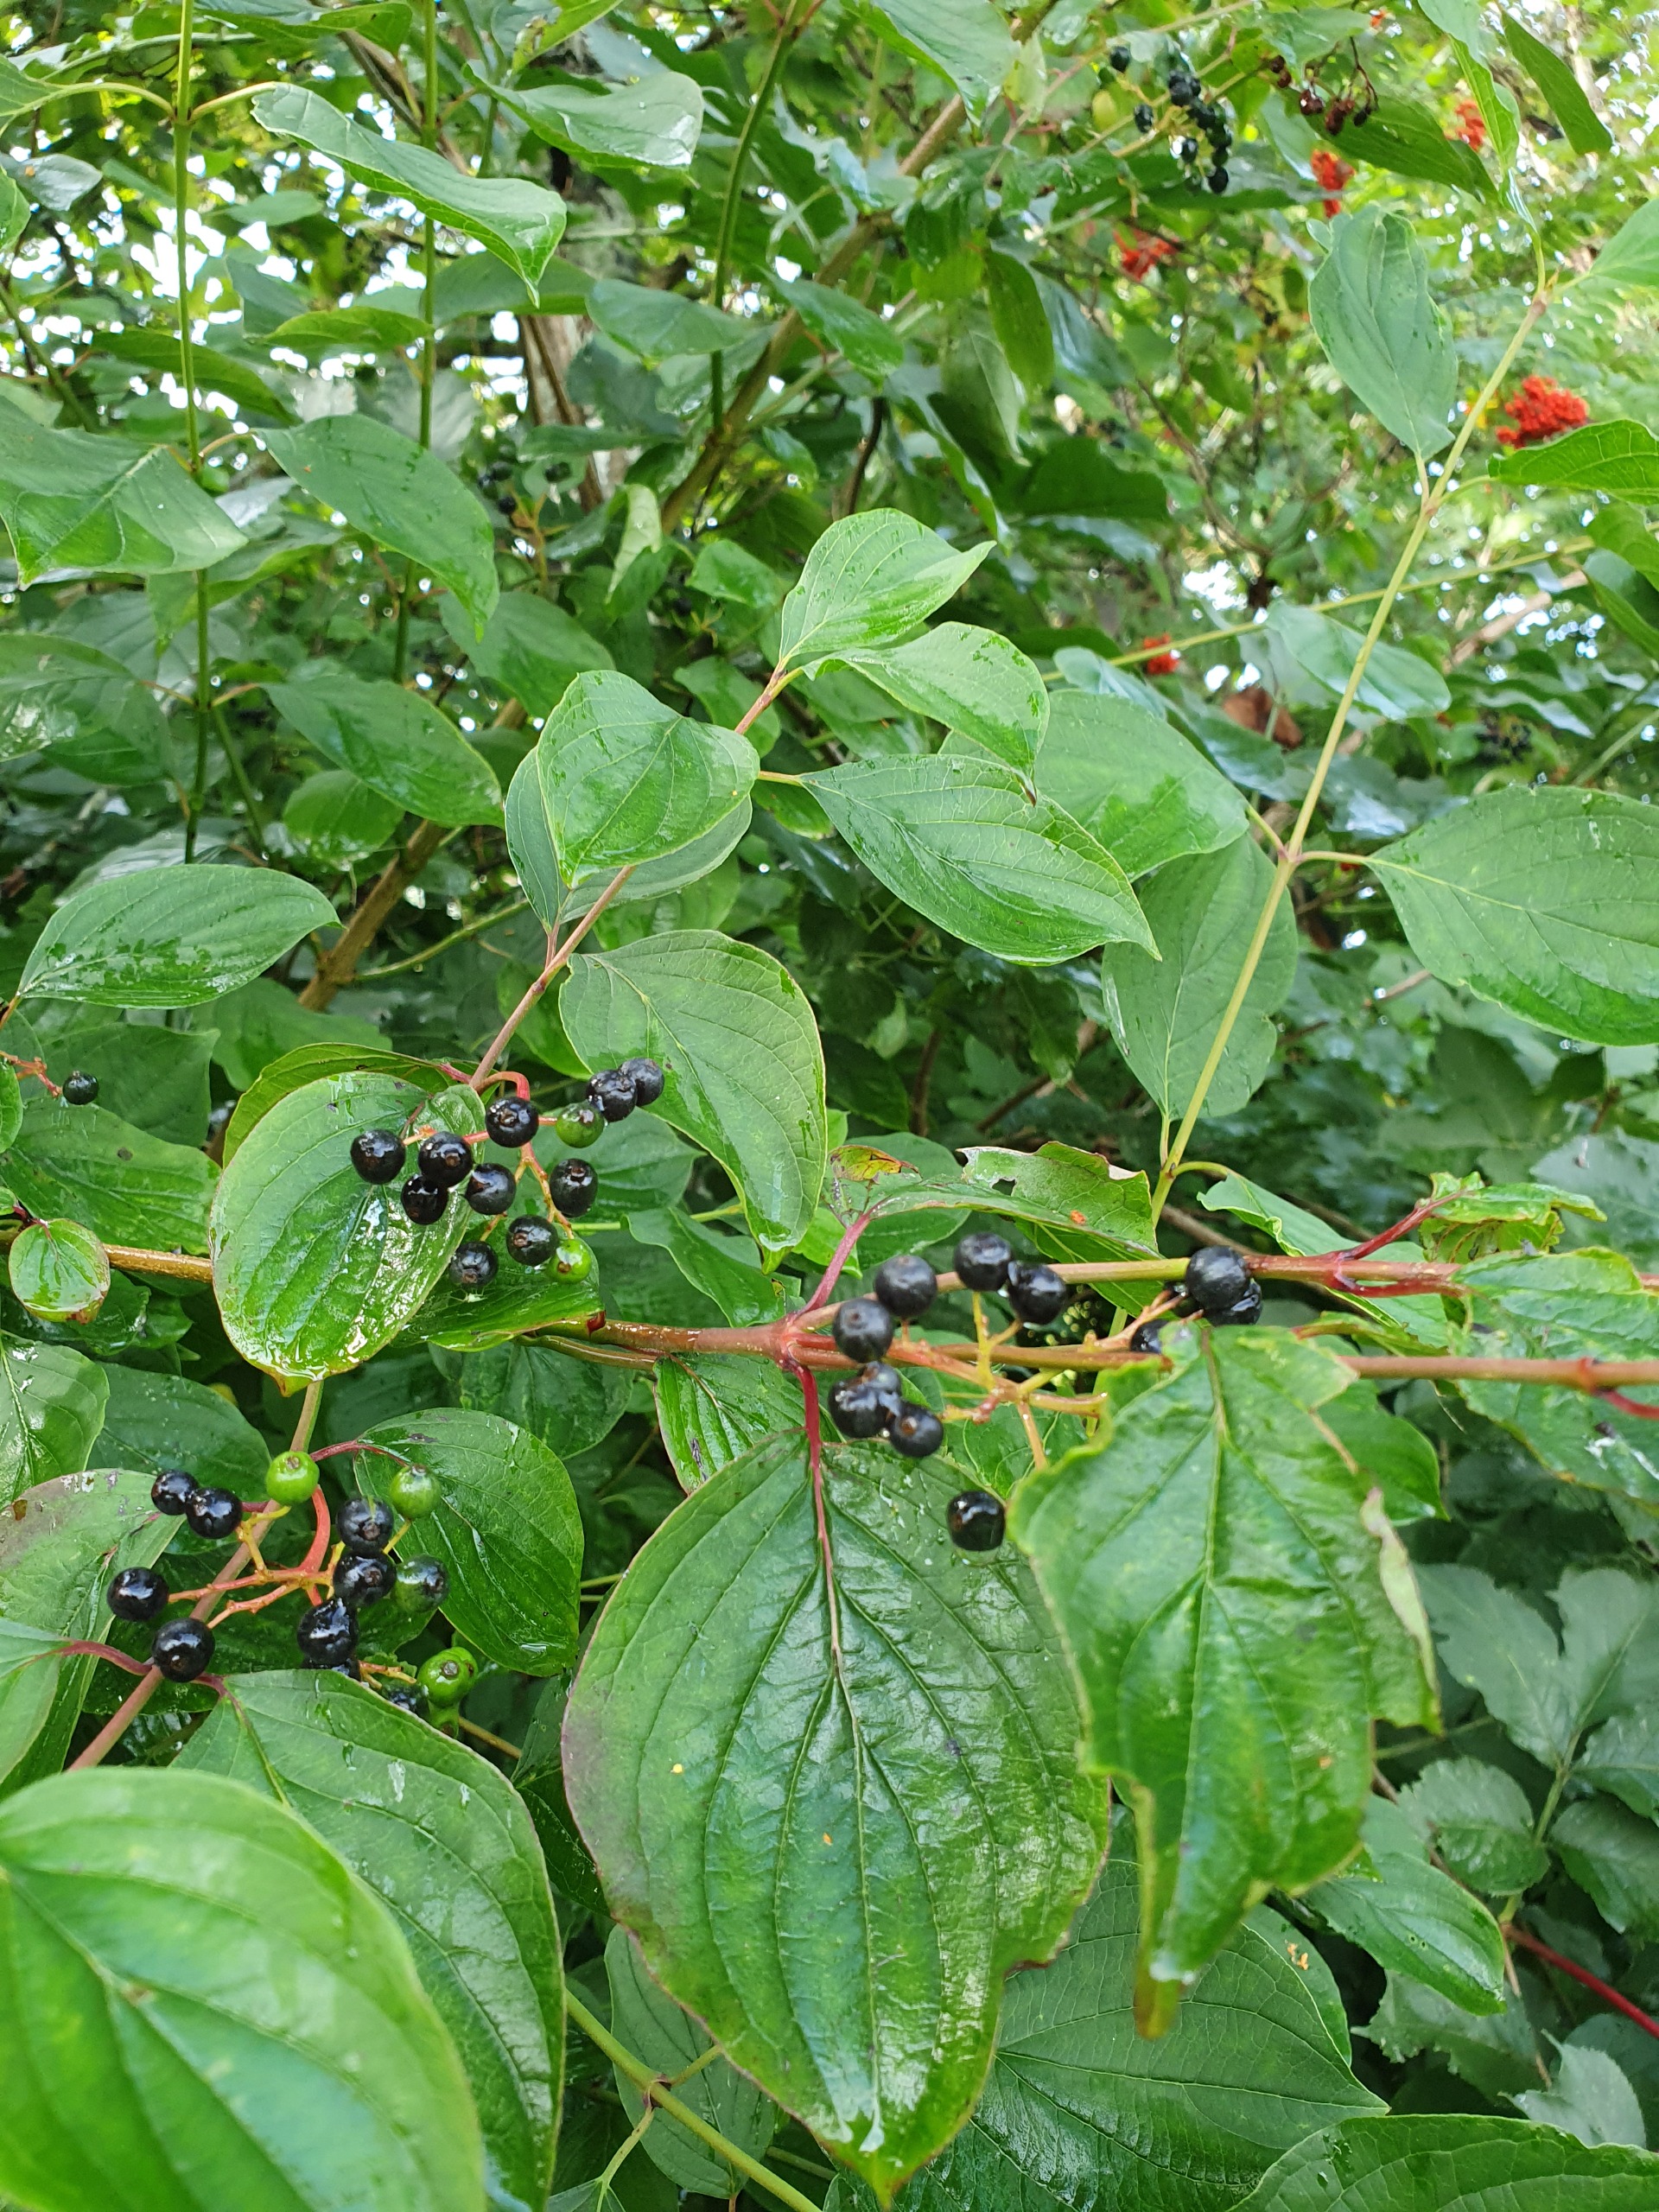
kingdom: Plantae
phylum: Tracheophyta
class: Magnoliopsida
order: Cornales
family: Cornaceae
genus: Cornus
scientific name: Cornus sanguinea
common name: Rød kornel
